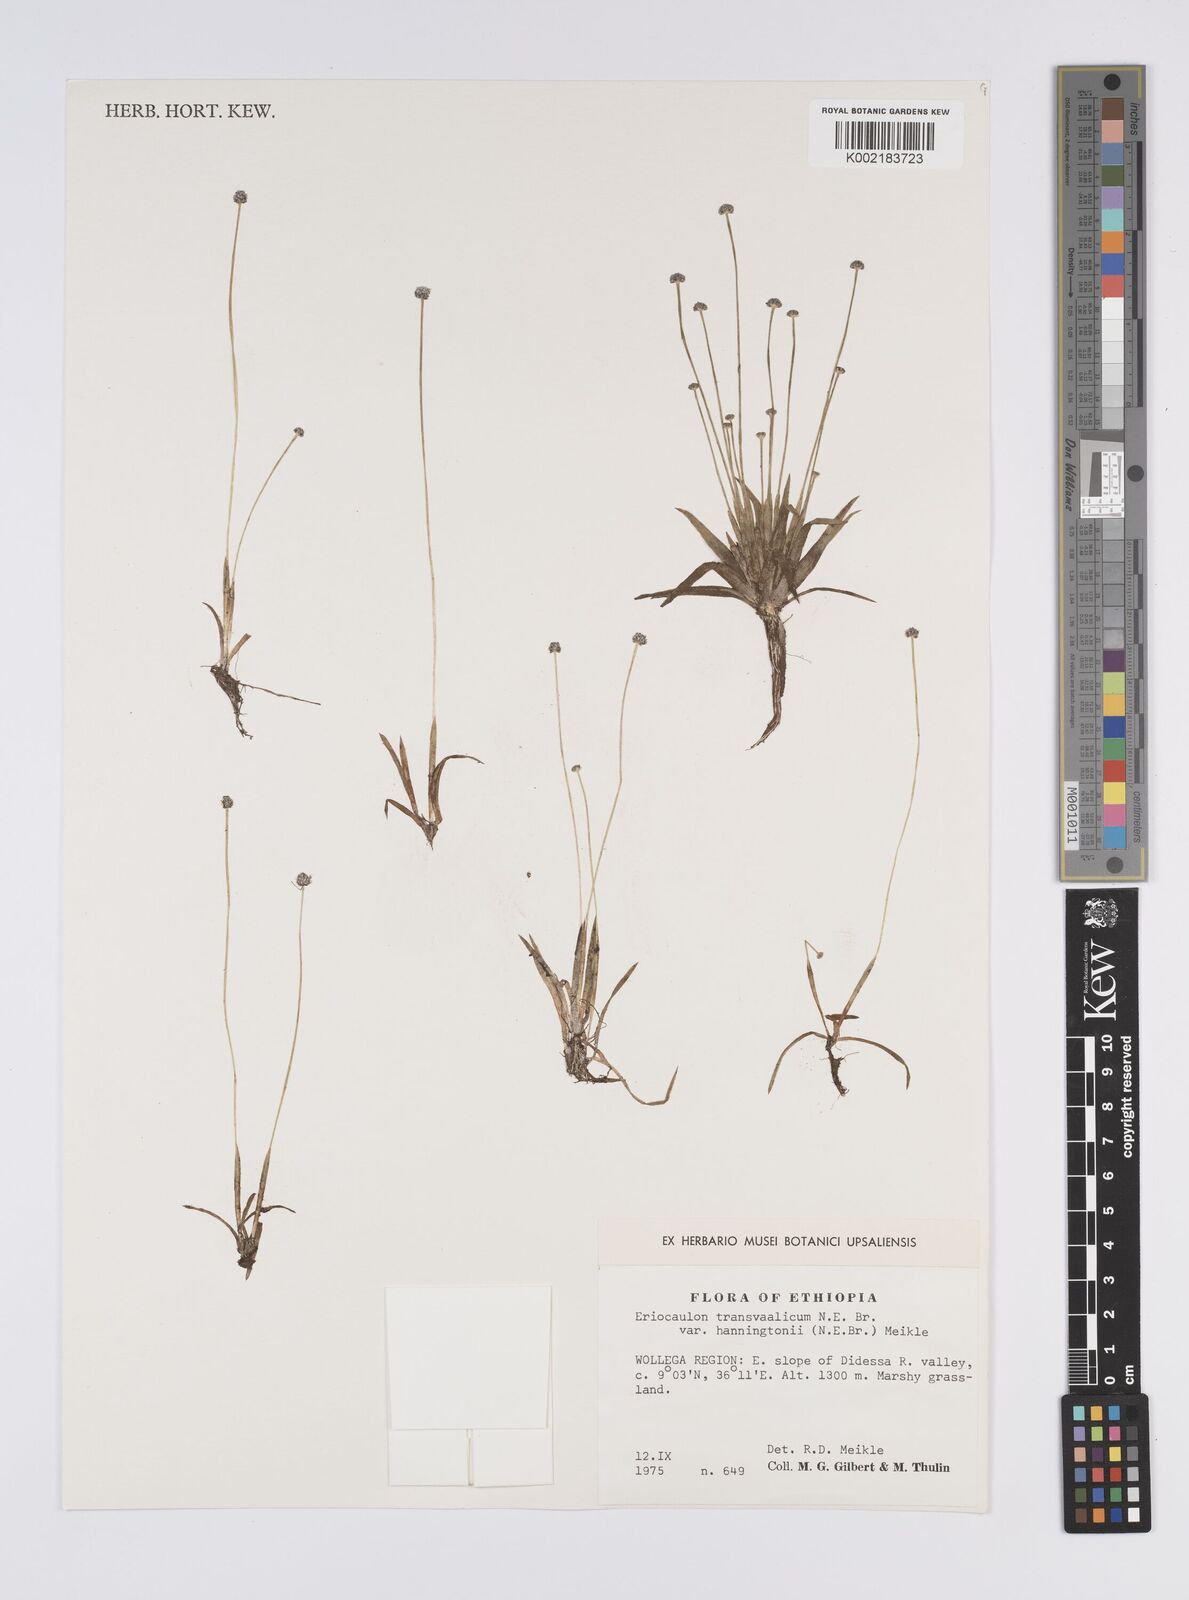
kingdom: Plantae
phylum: Tracheophyta
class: Liliopsida
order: Poales
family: Eriocaulaceae
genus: Eriocaulon
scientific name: Eriocaulon transvaalicum
